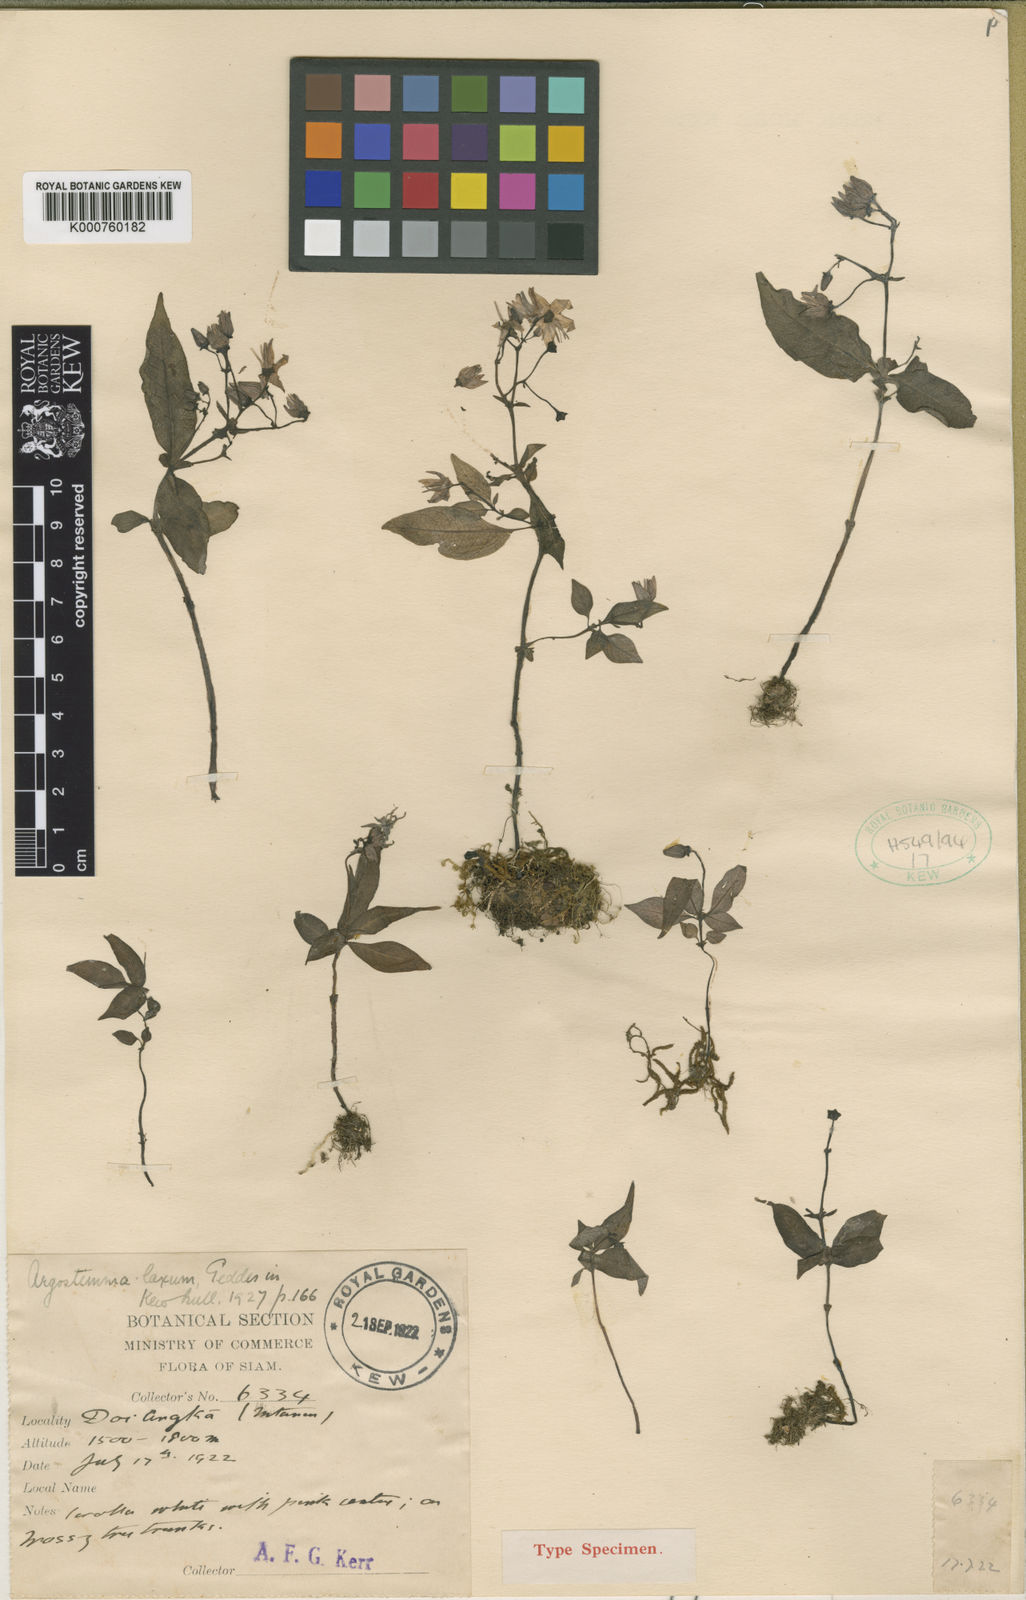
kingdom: Plantae
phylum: Tracheophyta
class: Magnoliopsida
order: Gentianales
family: Rubiaceae
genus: Argostemma
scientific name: Argostemma laxum
